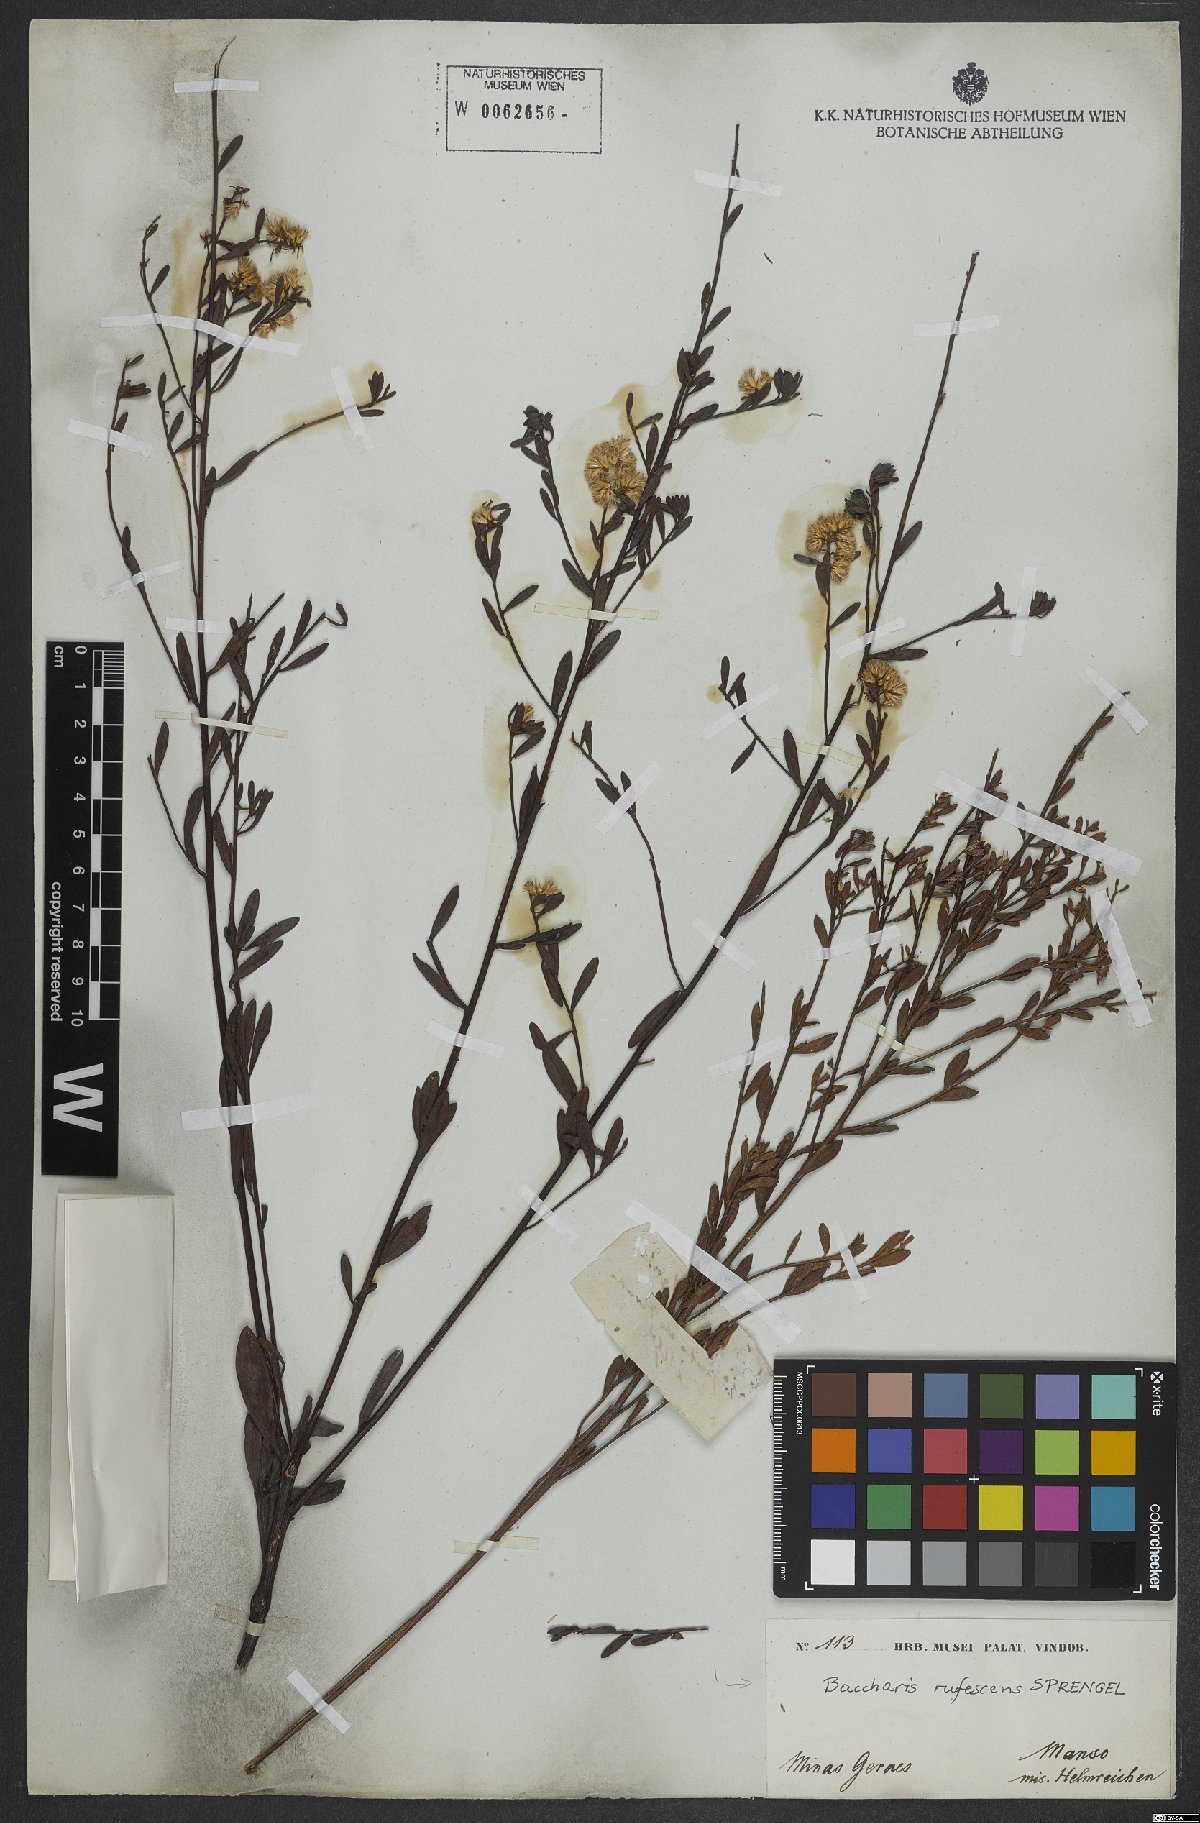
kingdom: Plantae
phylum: Tracheophyta
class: Magnoliopsida
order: Asterales
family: Asteraceae
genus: Baccharis
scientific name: Baccharis rufescens
